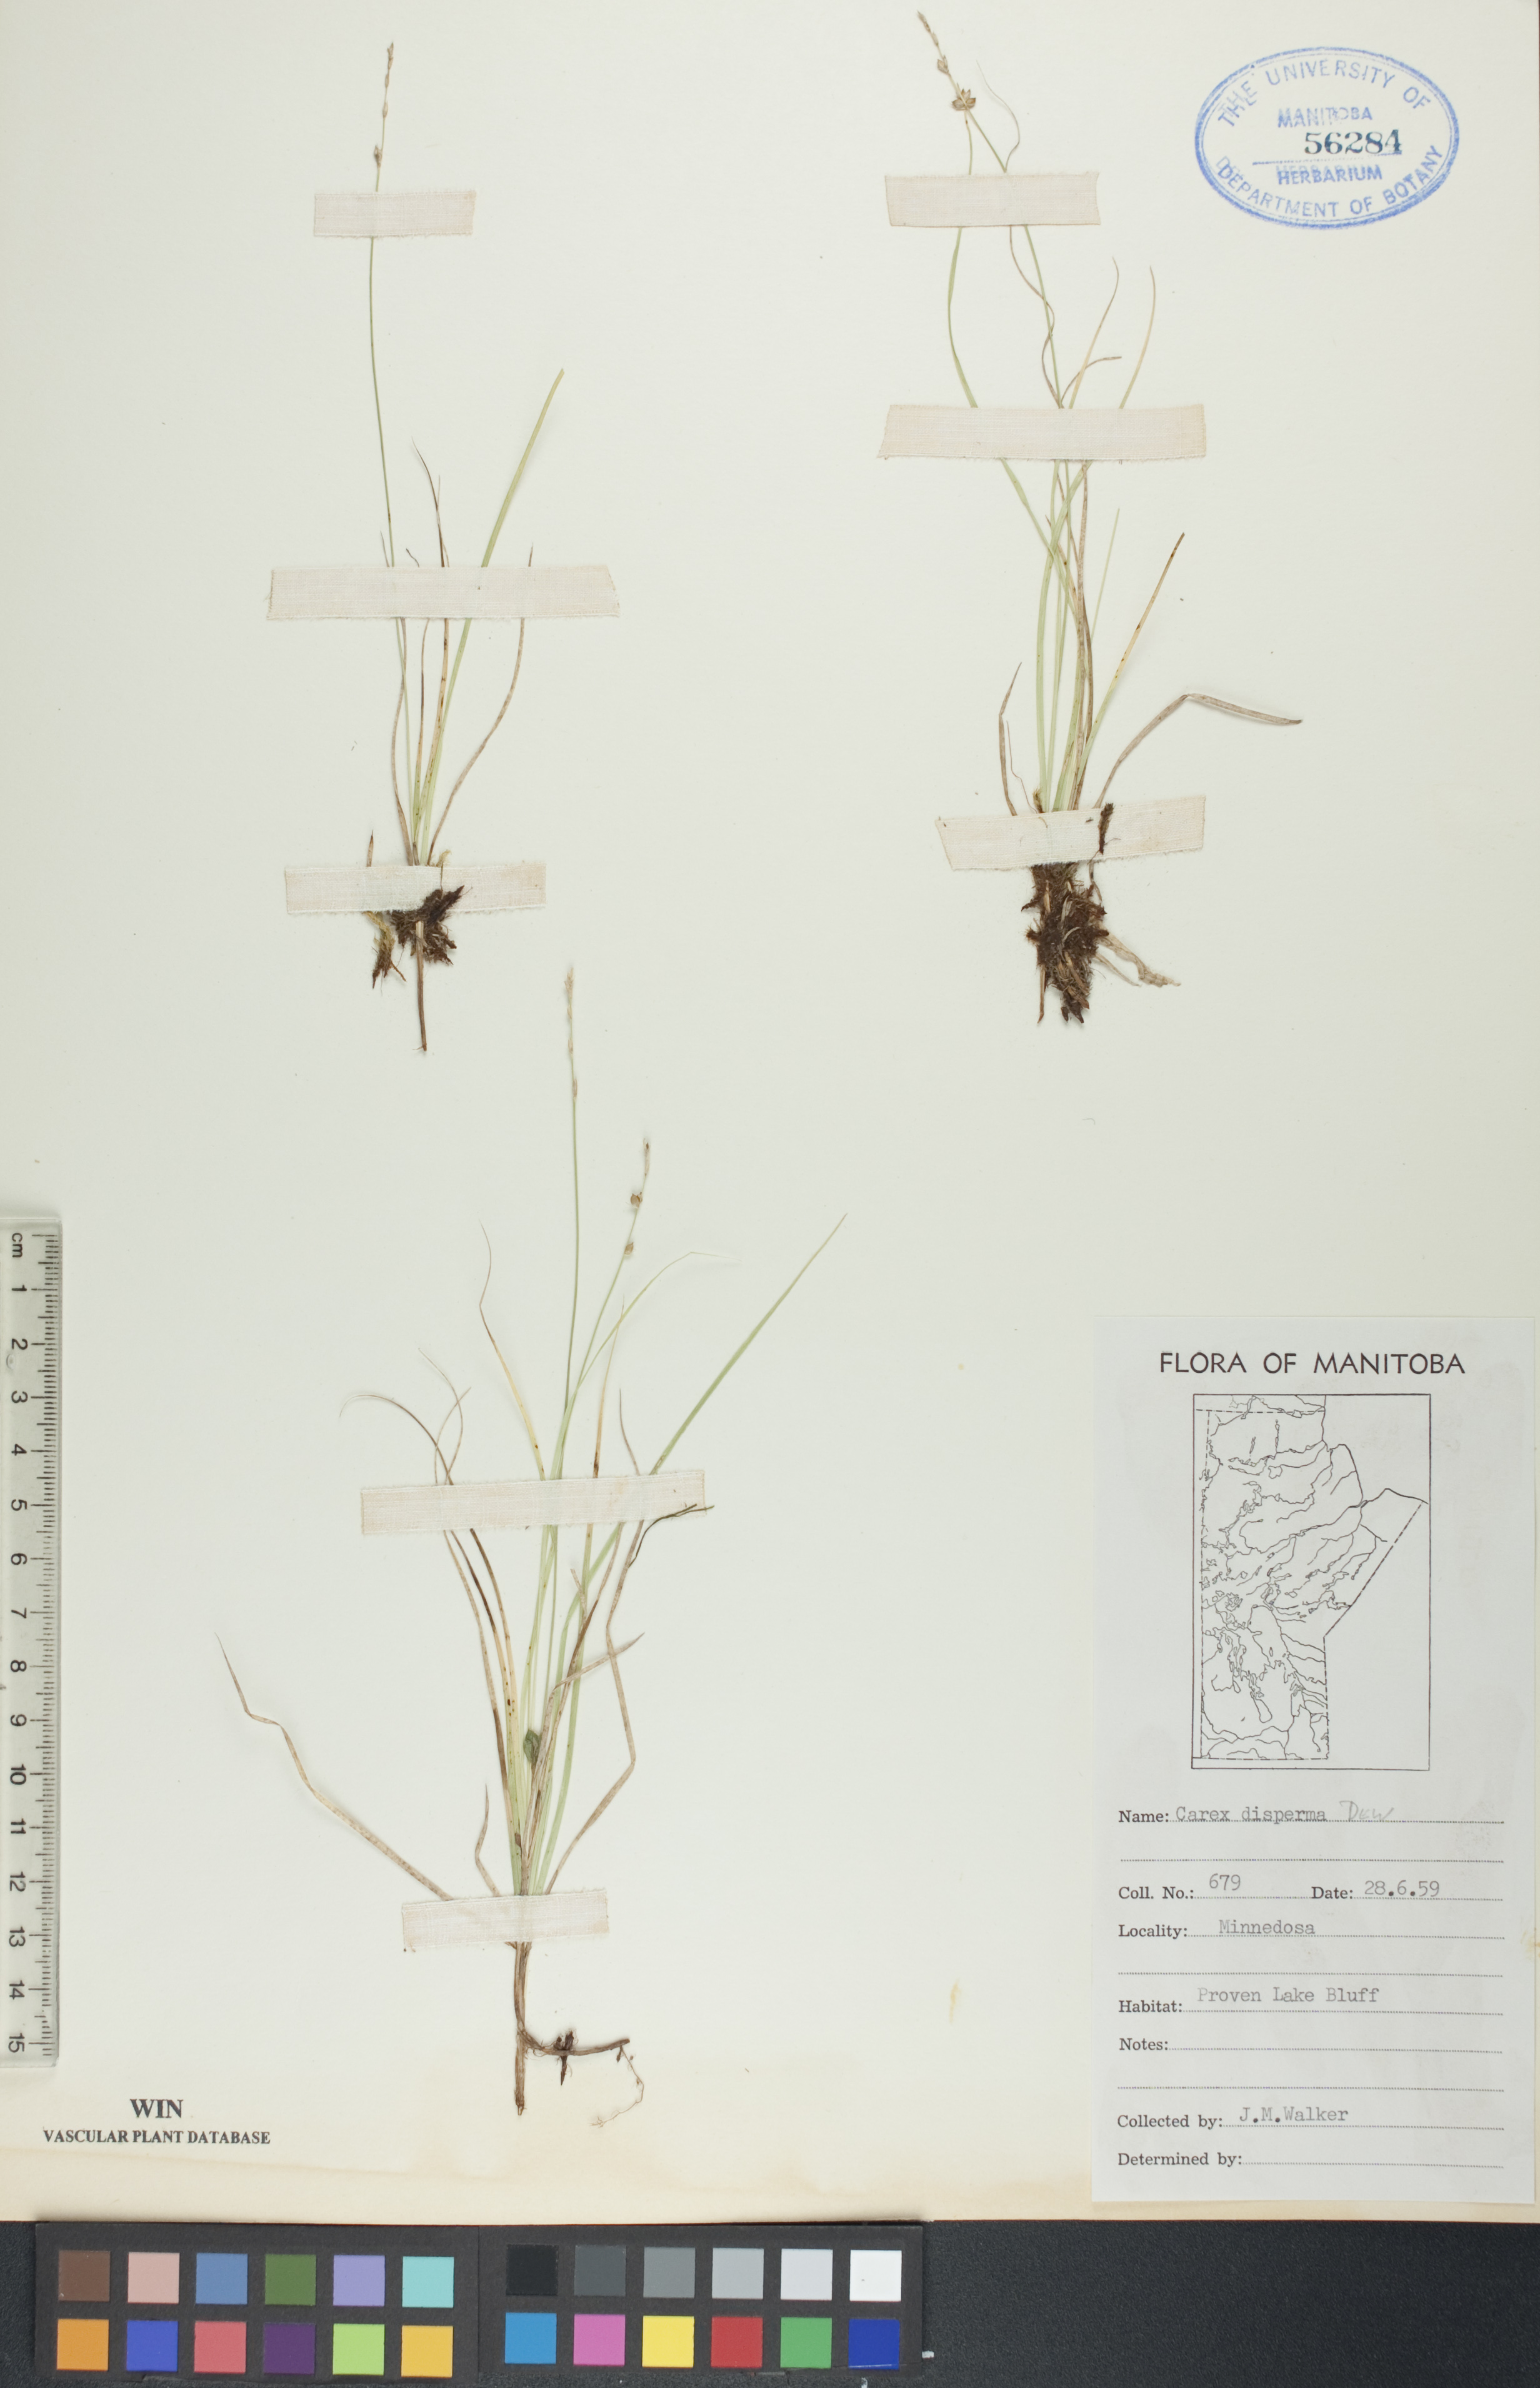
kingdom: Plantae
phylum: Tracheophyta
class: Liliopsida
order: Poales
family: Cyperaceae
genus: Carex
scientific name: Carex disperma
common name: Short-leaved sedge
